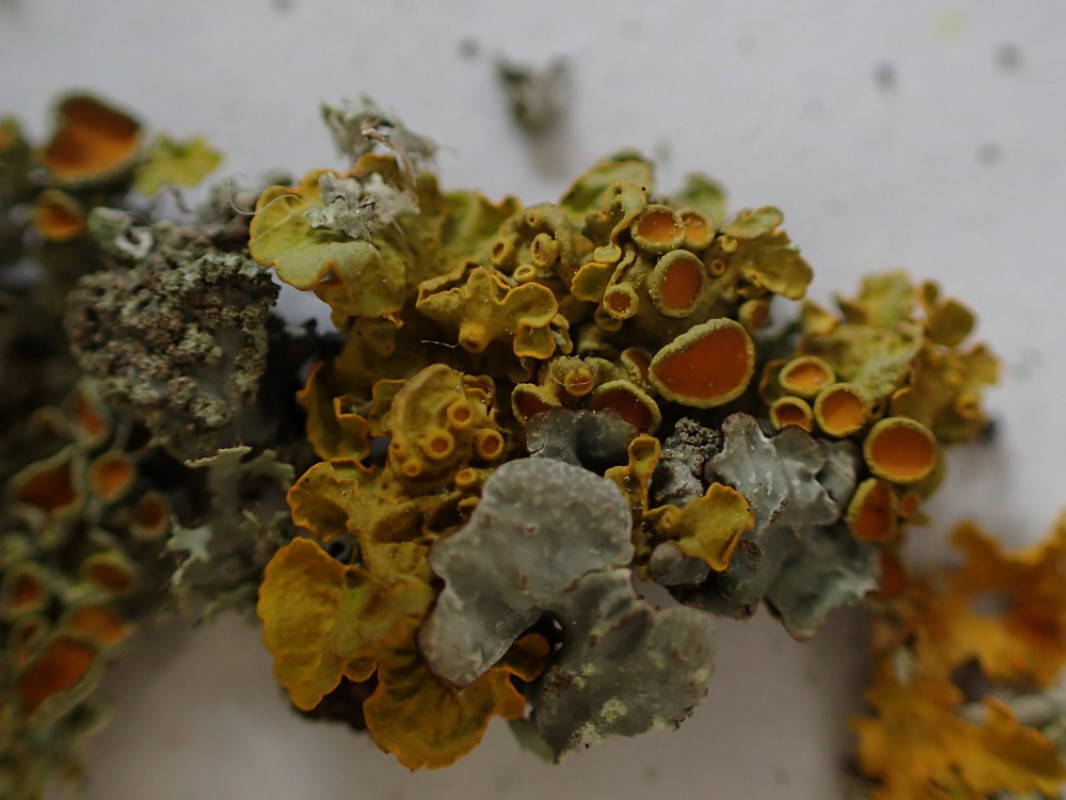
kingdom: Fungi
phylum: Ascomycota
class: Lecanoromycetes
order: Teloschistales
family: Teloschistaceae
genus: Xanthoria
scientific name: Xanthoria parietina
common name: almindelig væggelav
